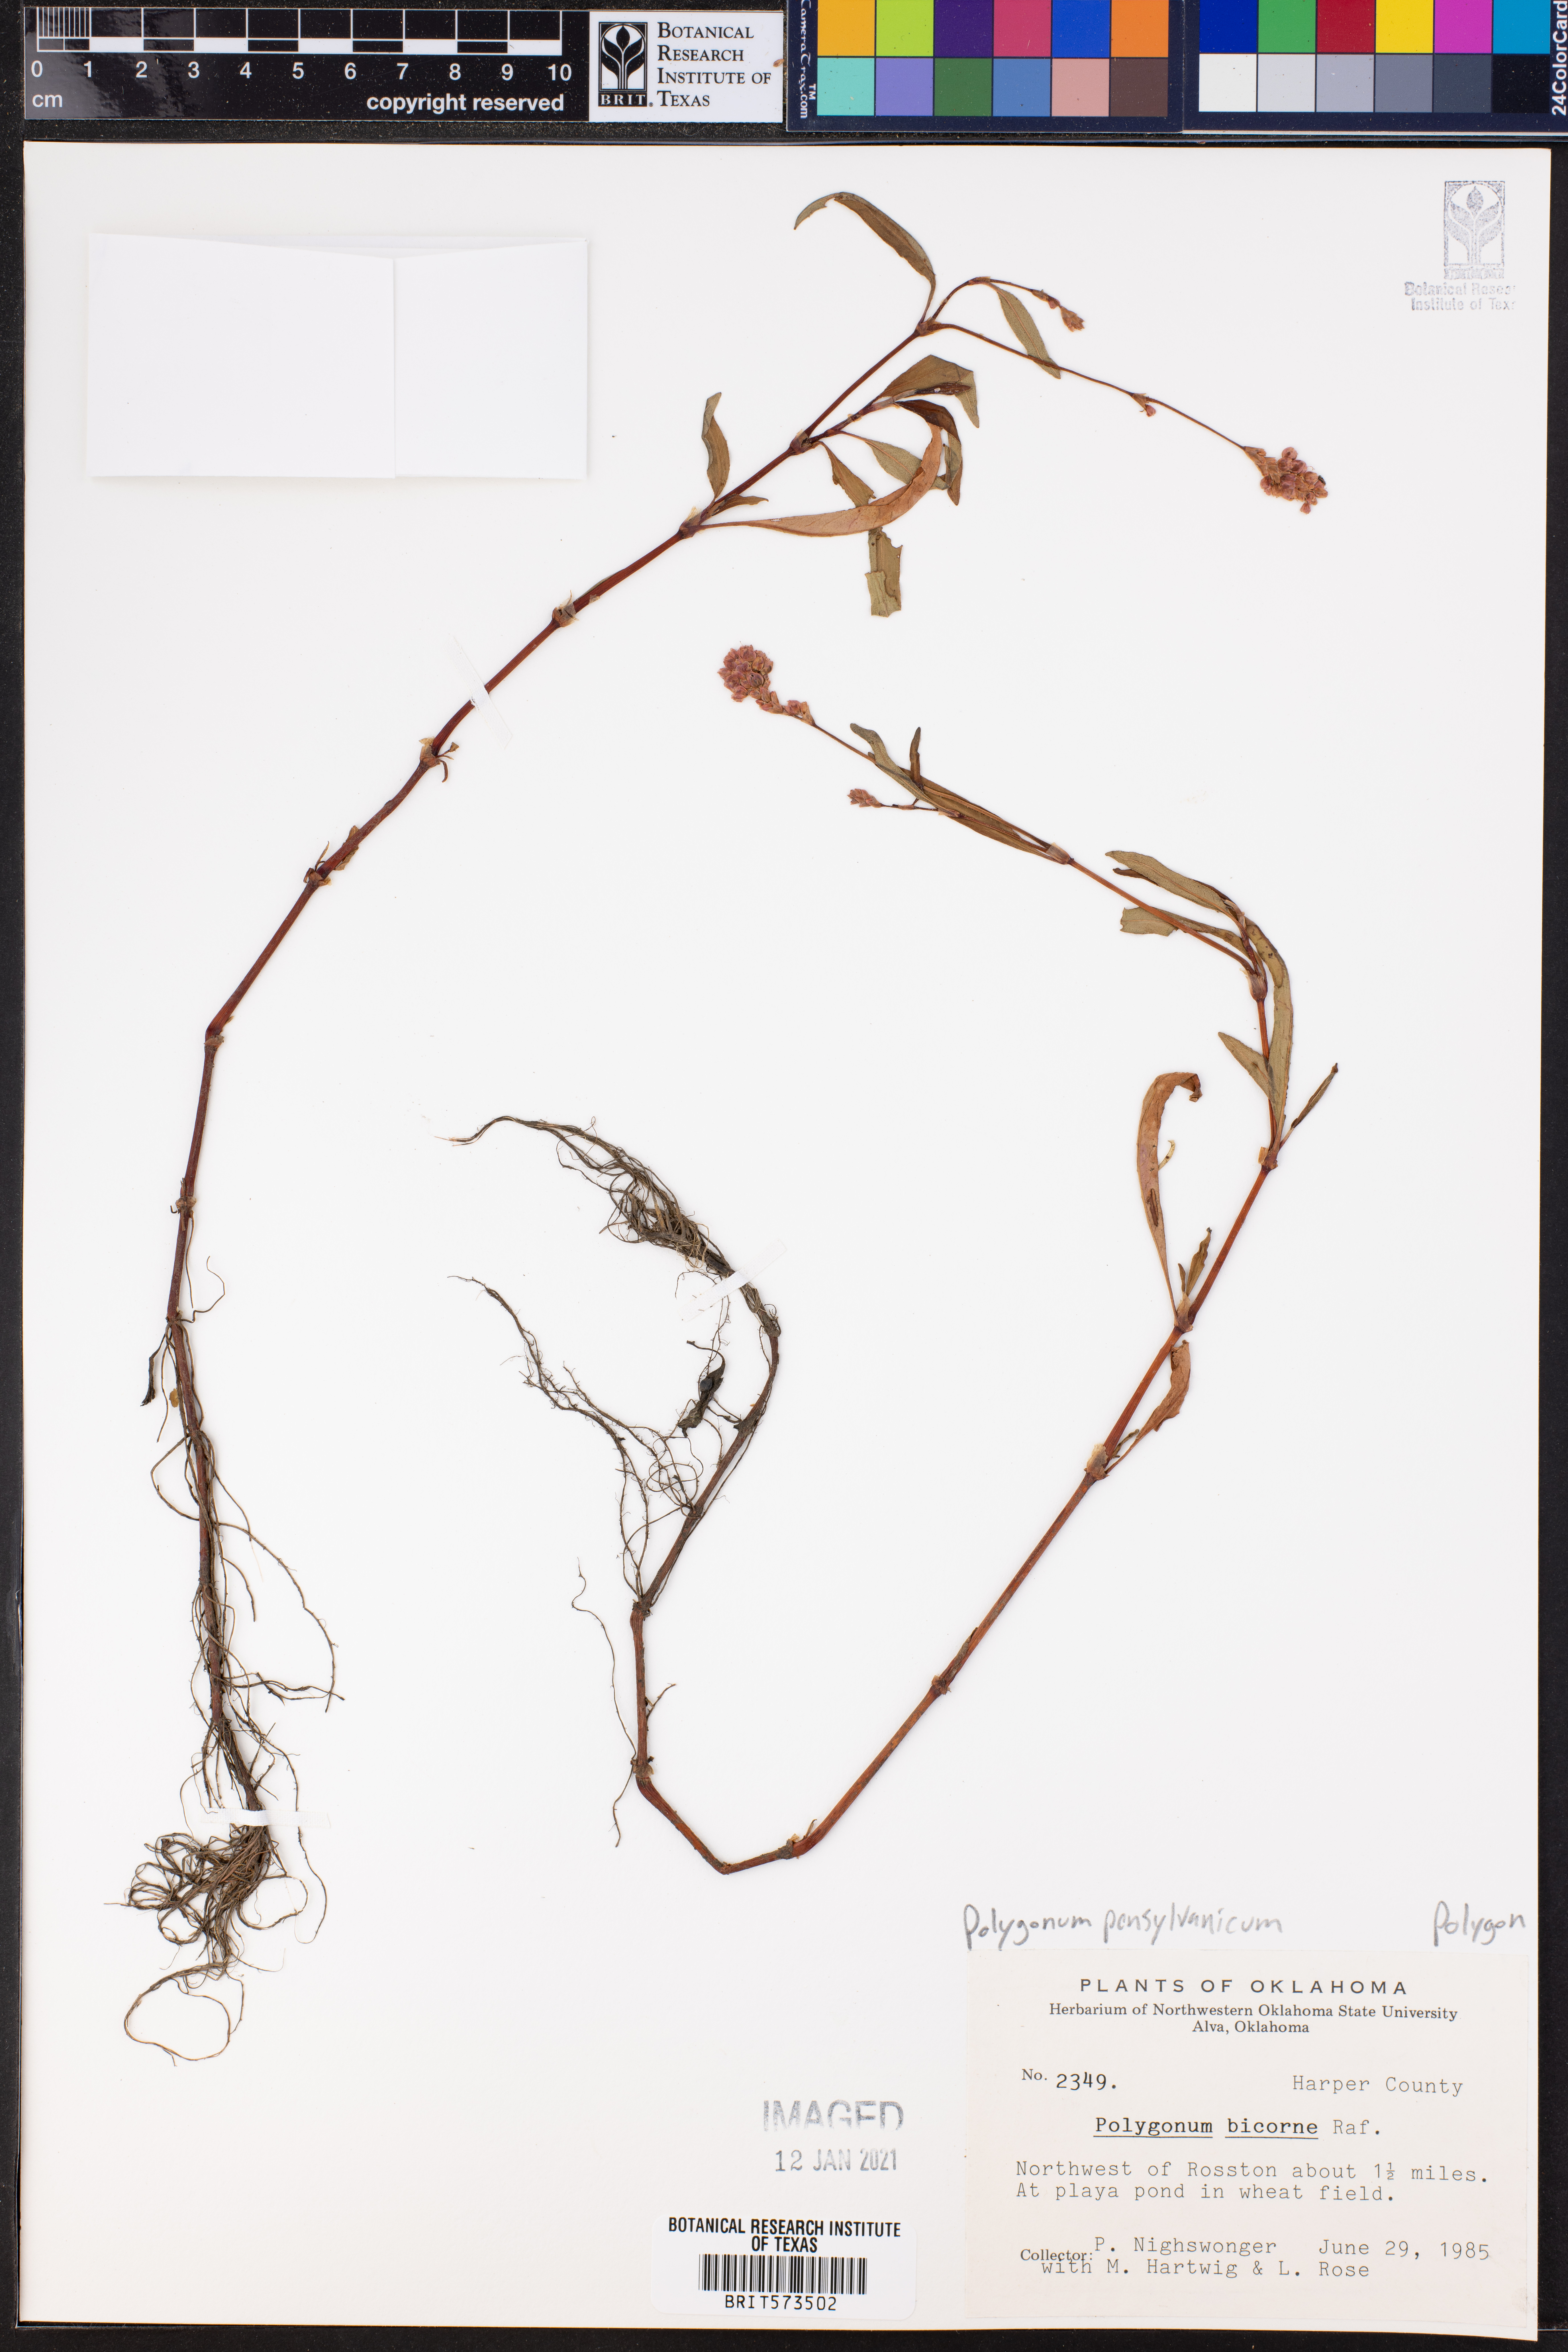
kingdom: Plantae
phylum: Tracheophyta
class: Magnoliopsida
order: Caryophyllales
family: Polygonaceae
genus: Persicaria
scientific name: Persicaria pensylvanica
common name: Pinkweed
